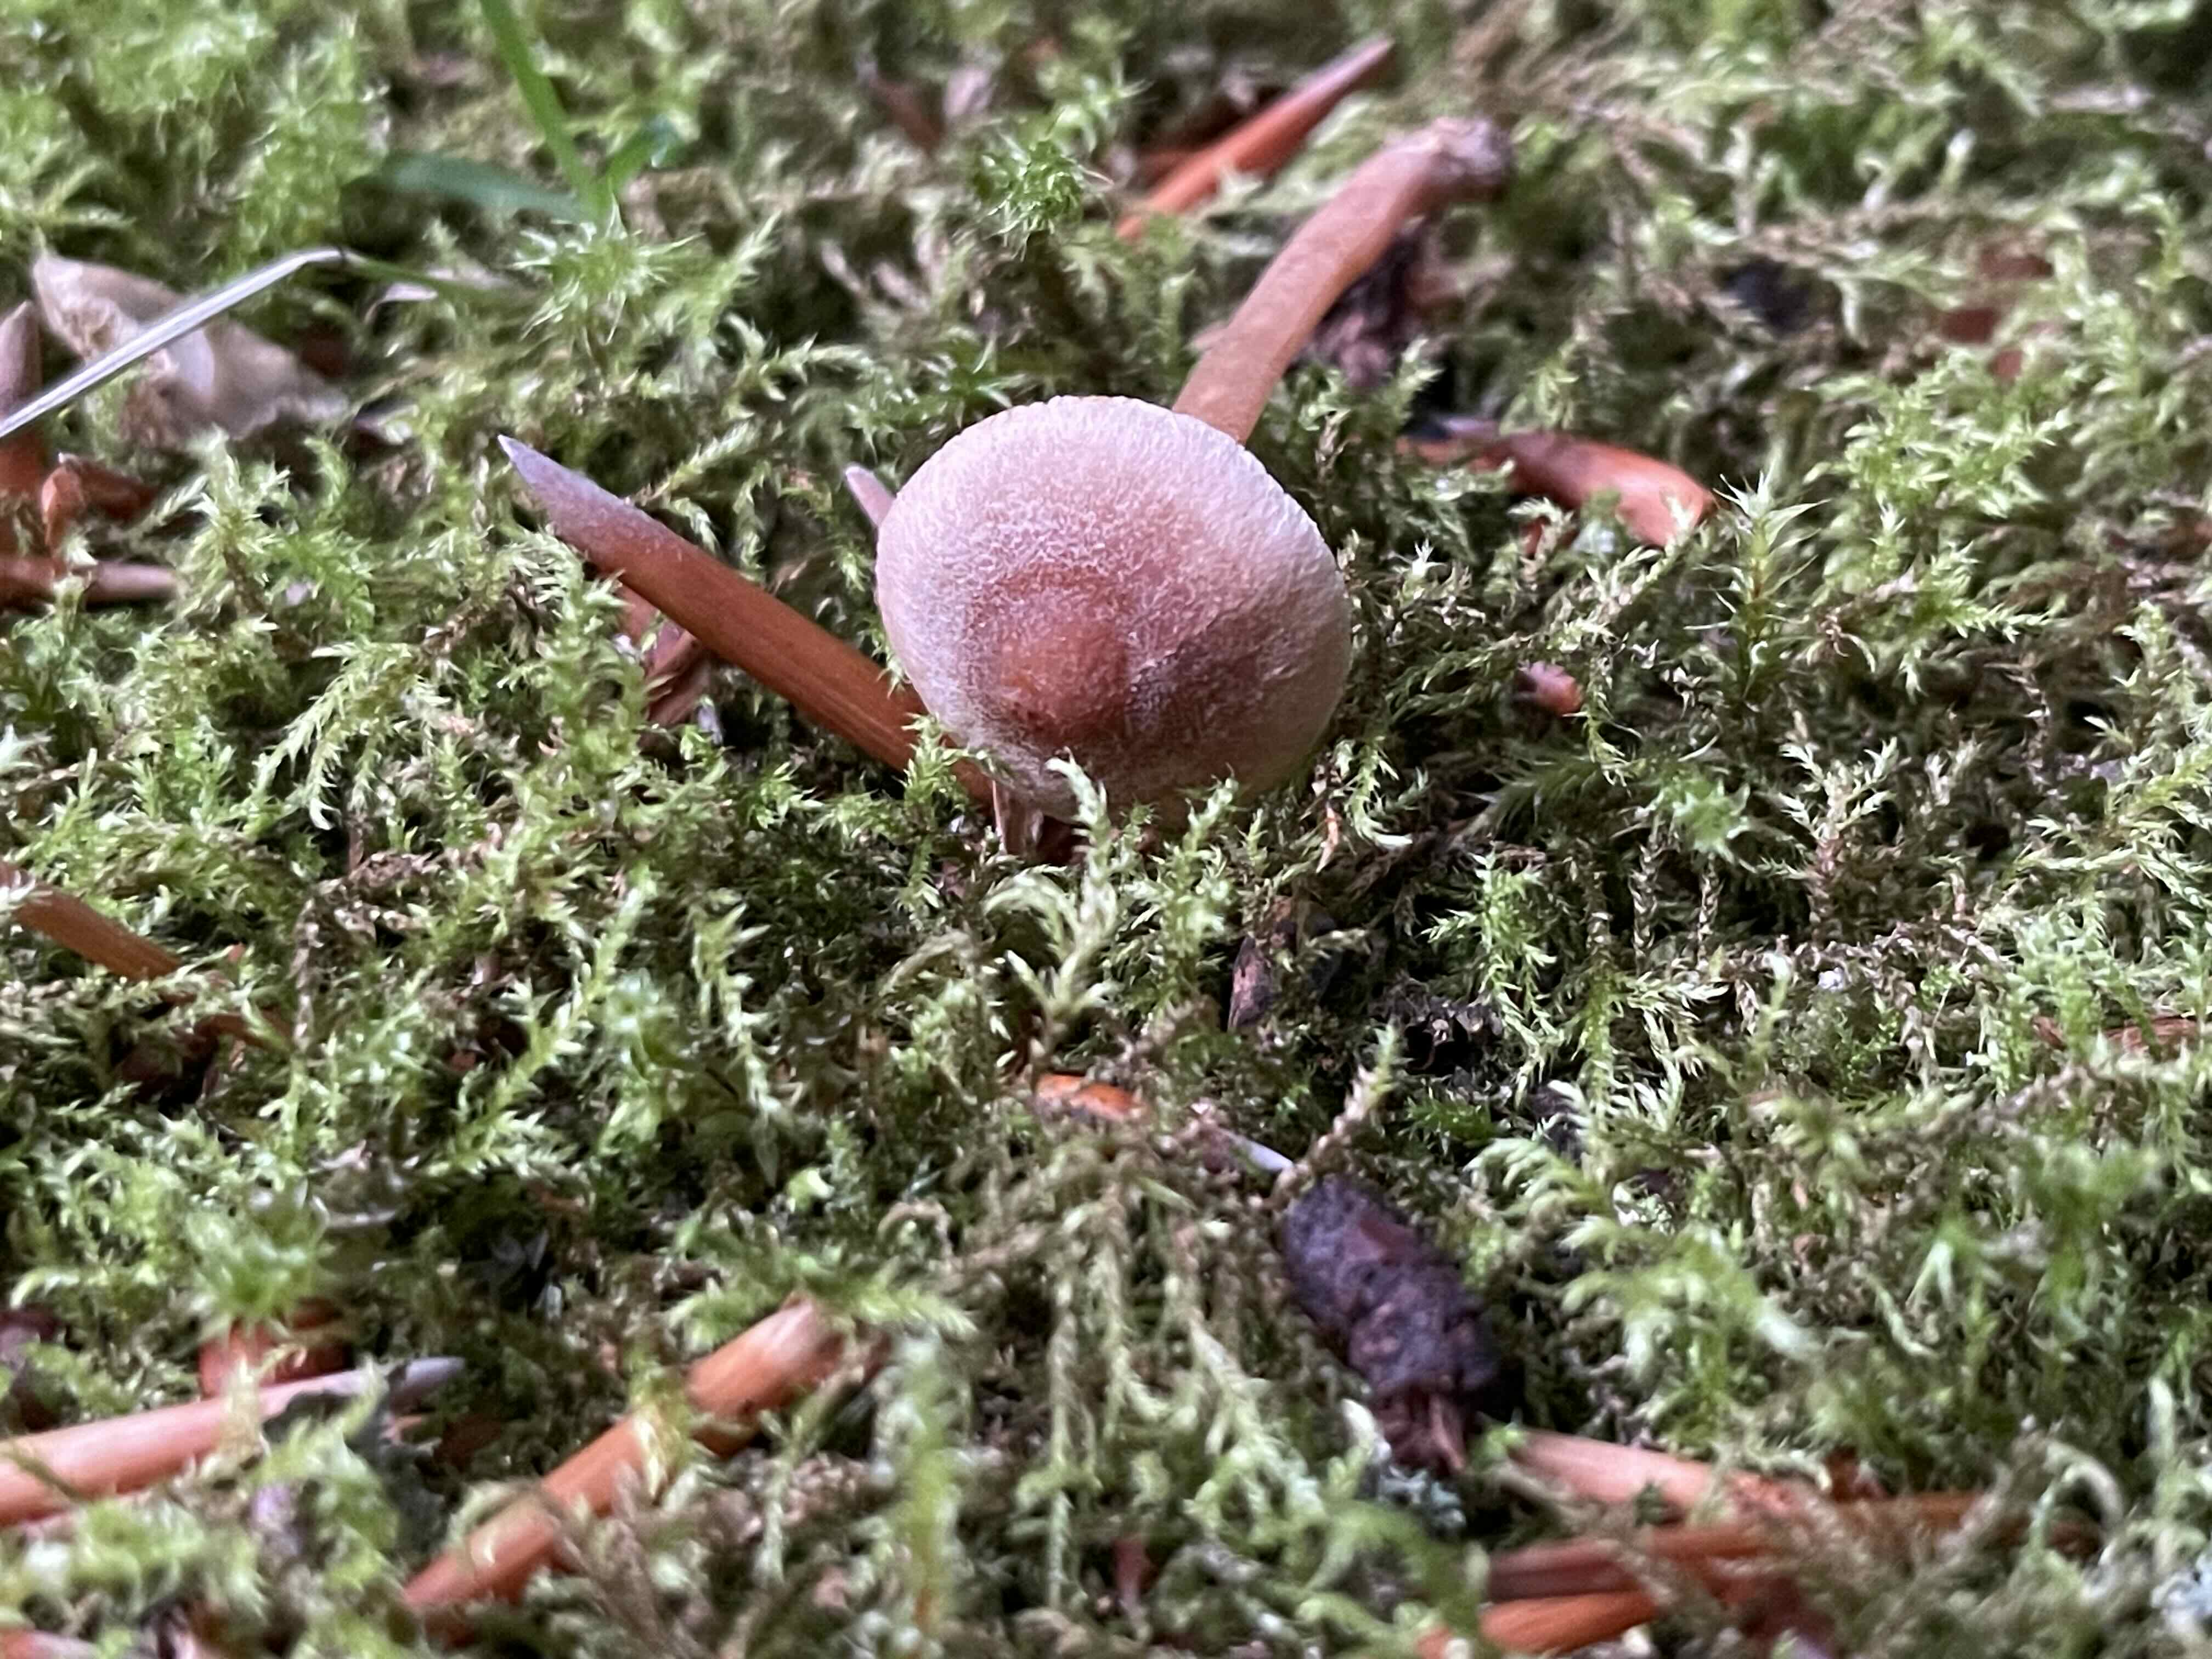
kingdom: Fungi
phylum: Basidiomycota
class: Agaricomycetes
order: Agaricales
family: Inocybaceae
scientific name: Inocybaceae
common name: trævlhatfamilien
